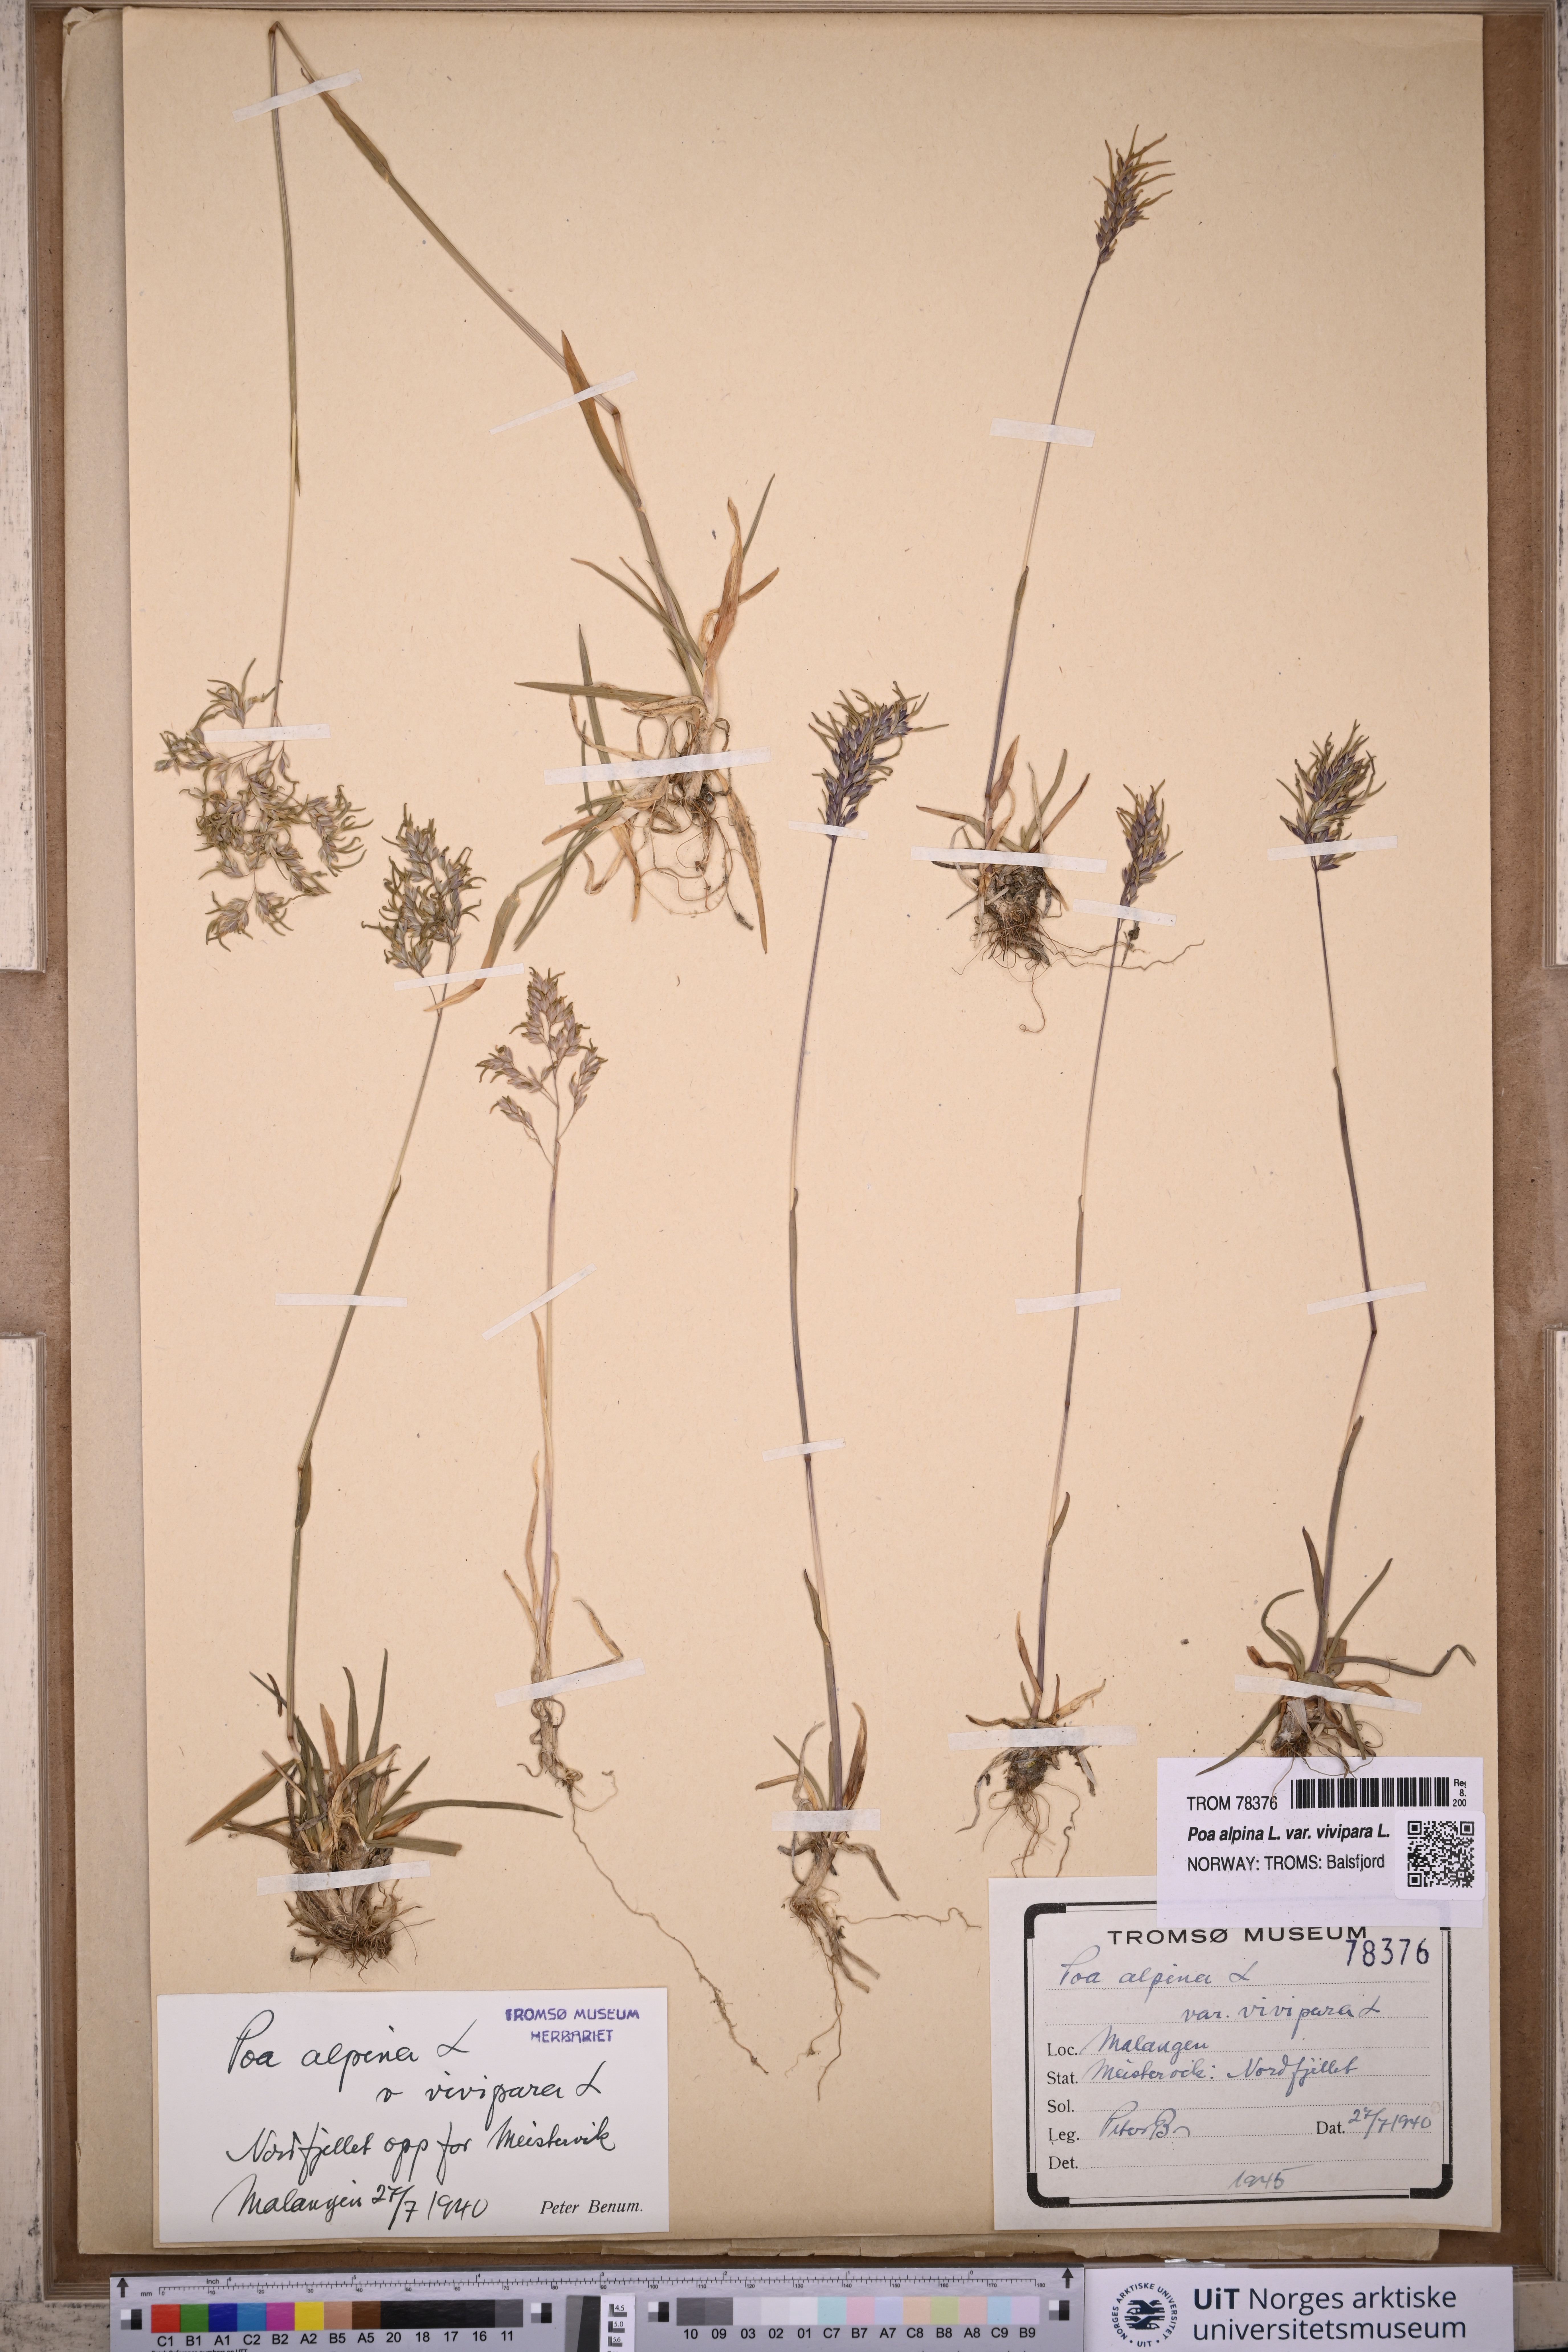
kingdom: Plantae
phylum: Tracheophyta
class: Liliopsida
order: Poales
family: Poaceae
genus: Poa
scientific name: Poa alpina
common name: Alpine bluegrass
